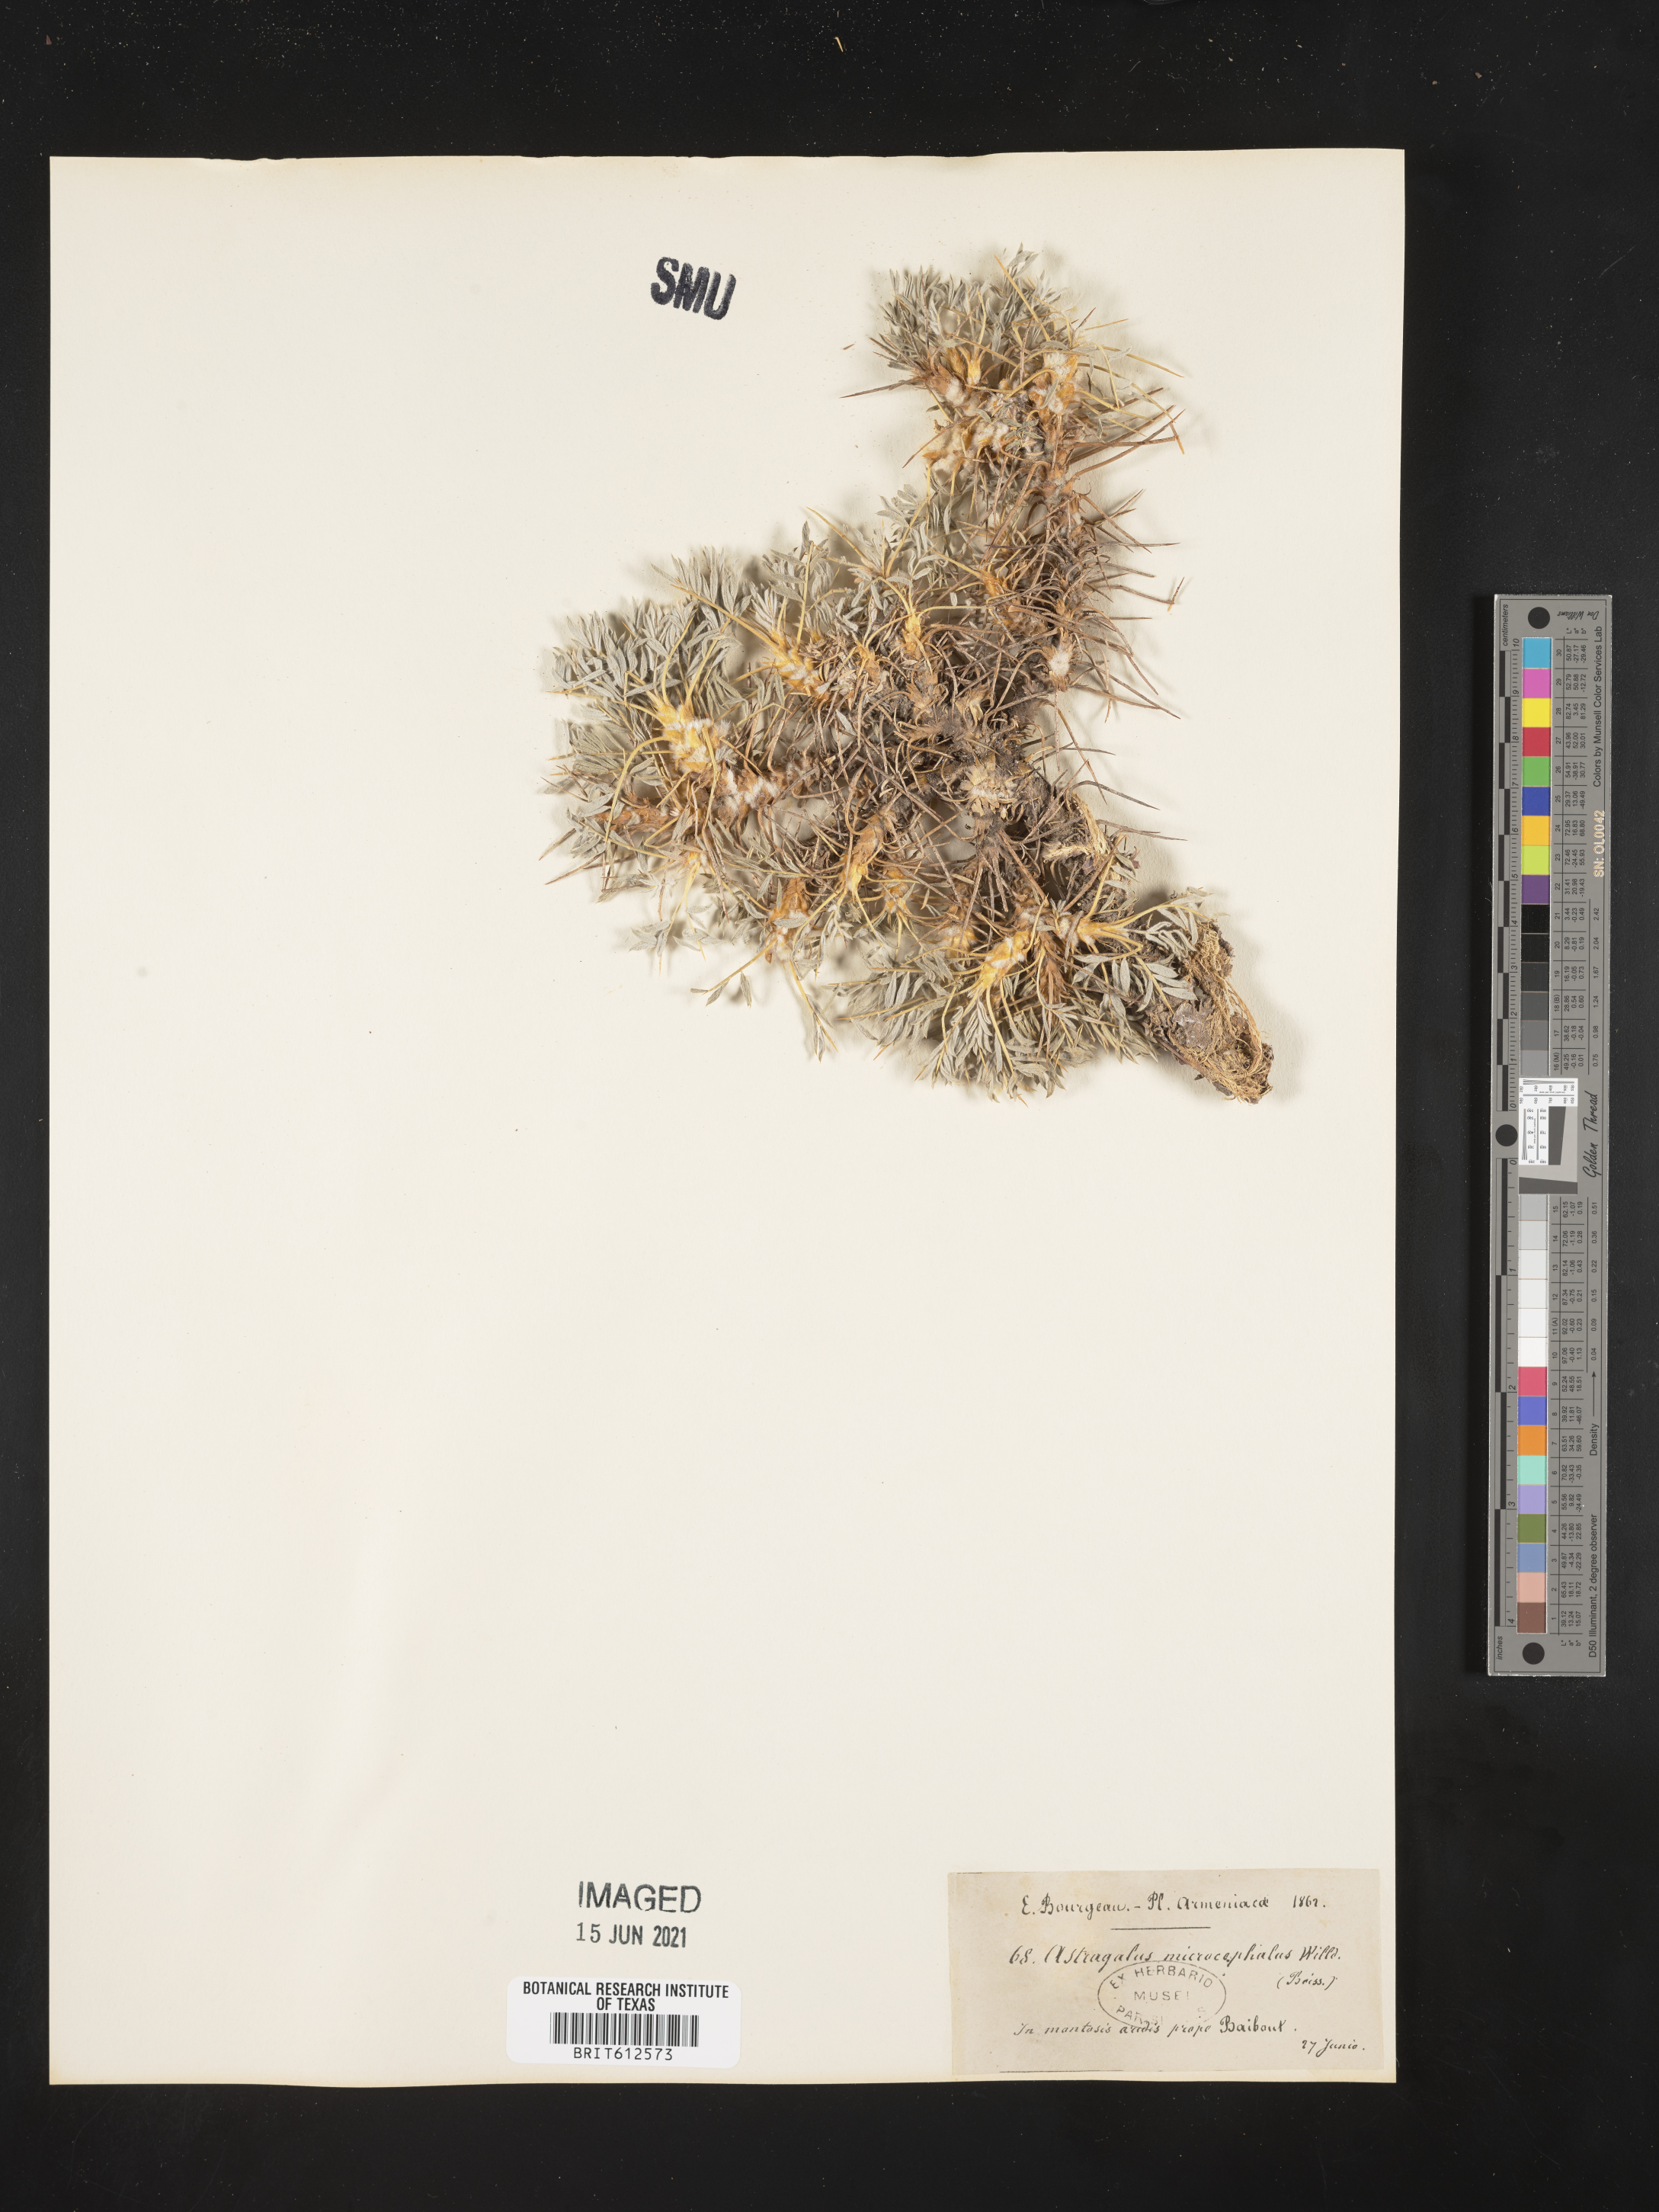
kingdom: Plantae
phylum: Tracheophyta
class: Magnoliopsida
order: Fabales
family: Fabaceae
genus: Astragalus
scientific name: Astragalus microcephalus
